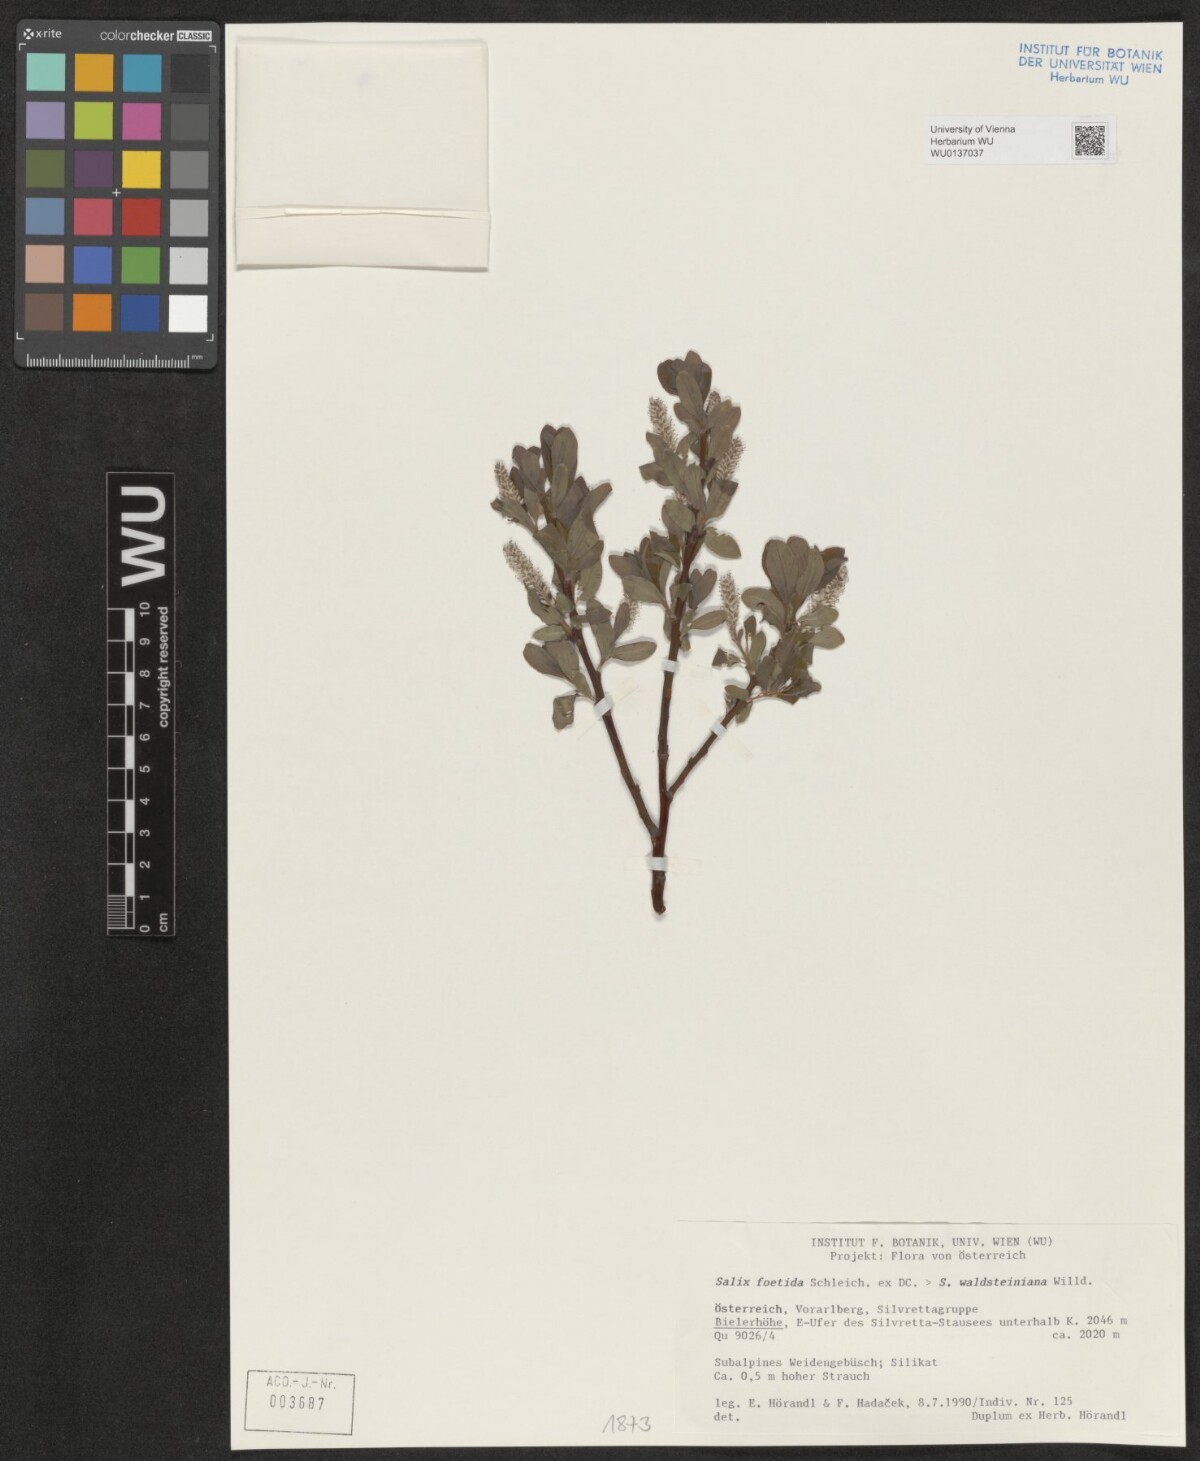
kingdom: Plantae
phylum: Tracheophyta
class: Magnoliopsida
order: Malpighiales
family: Salicaceae
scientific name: Salicaceae
